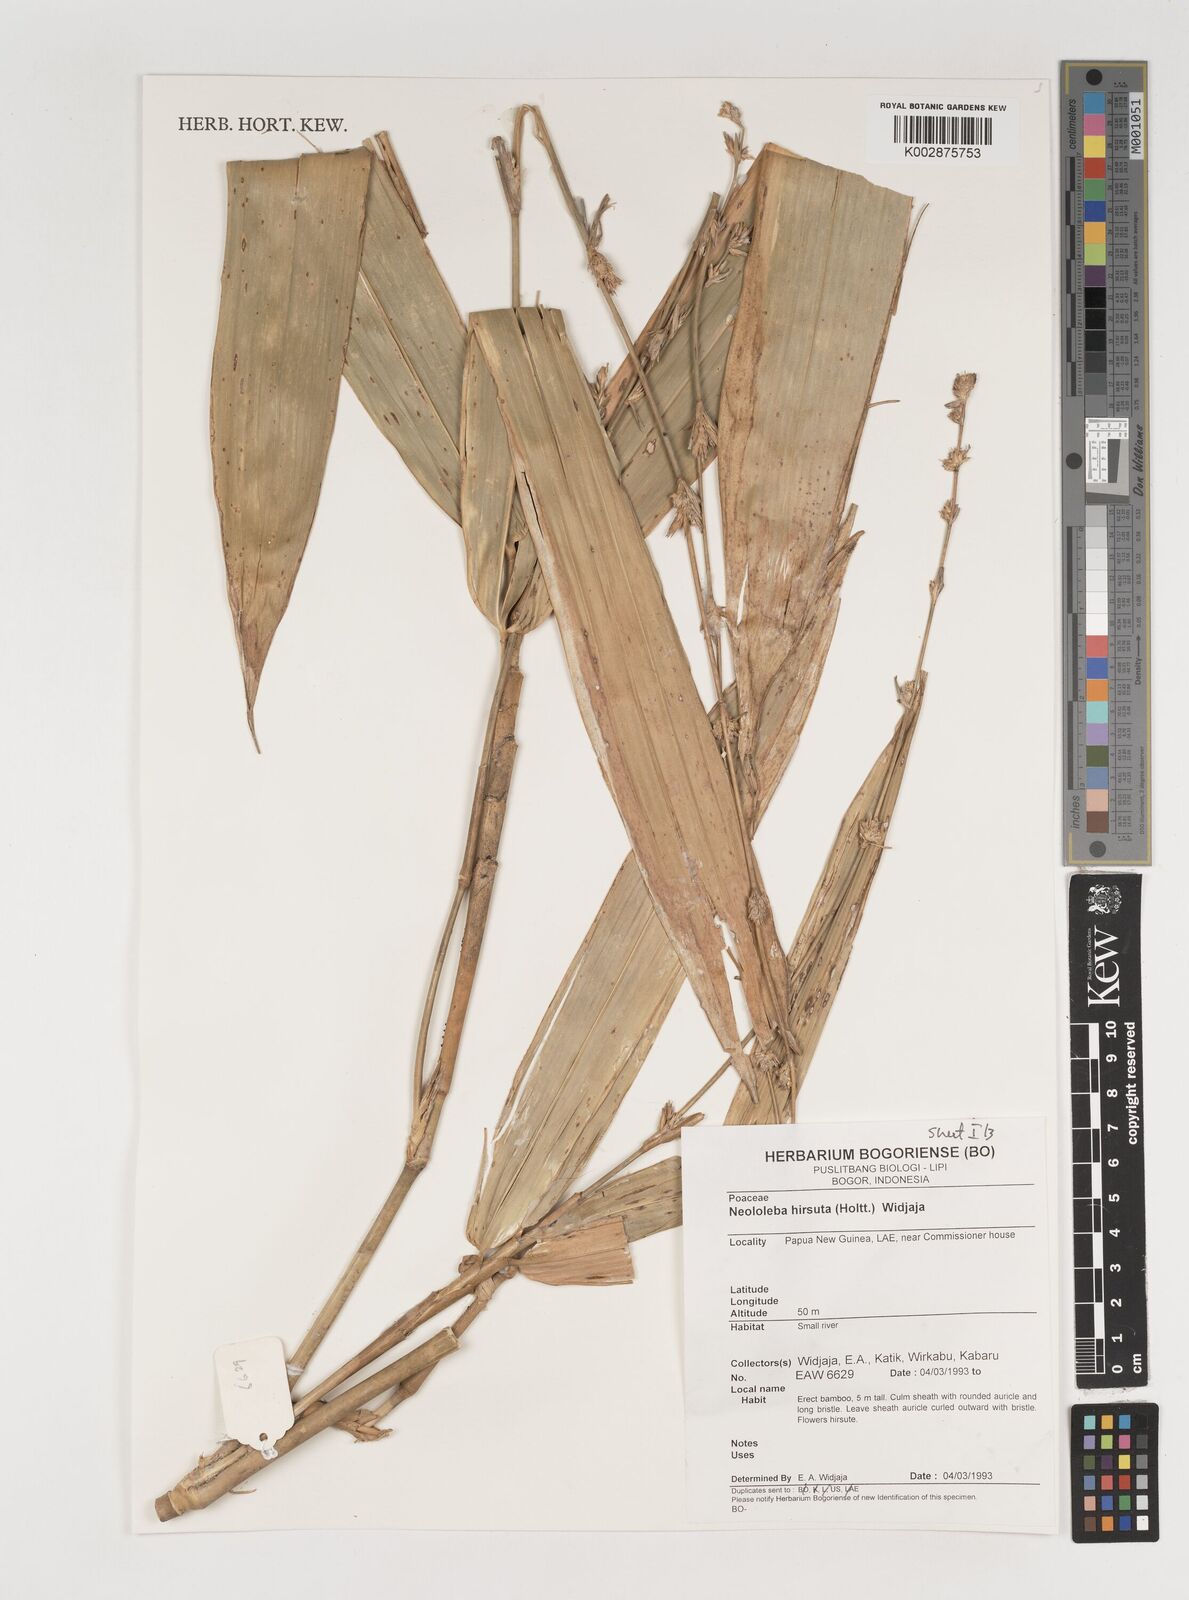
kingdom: Plantae
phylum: Tracheophyta
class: Liliopsida
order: Poales
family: Poaceae
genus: Neololeba
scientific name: Neololeba hirsuta
